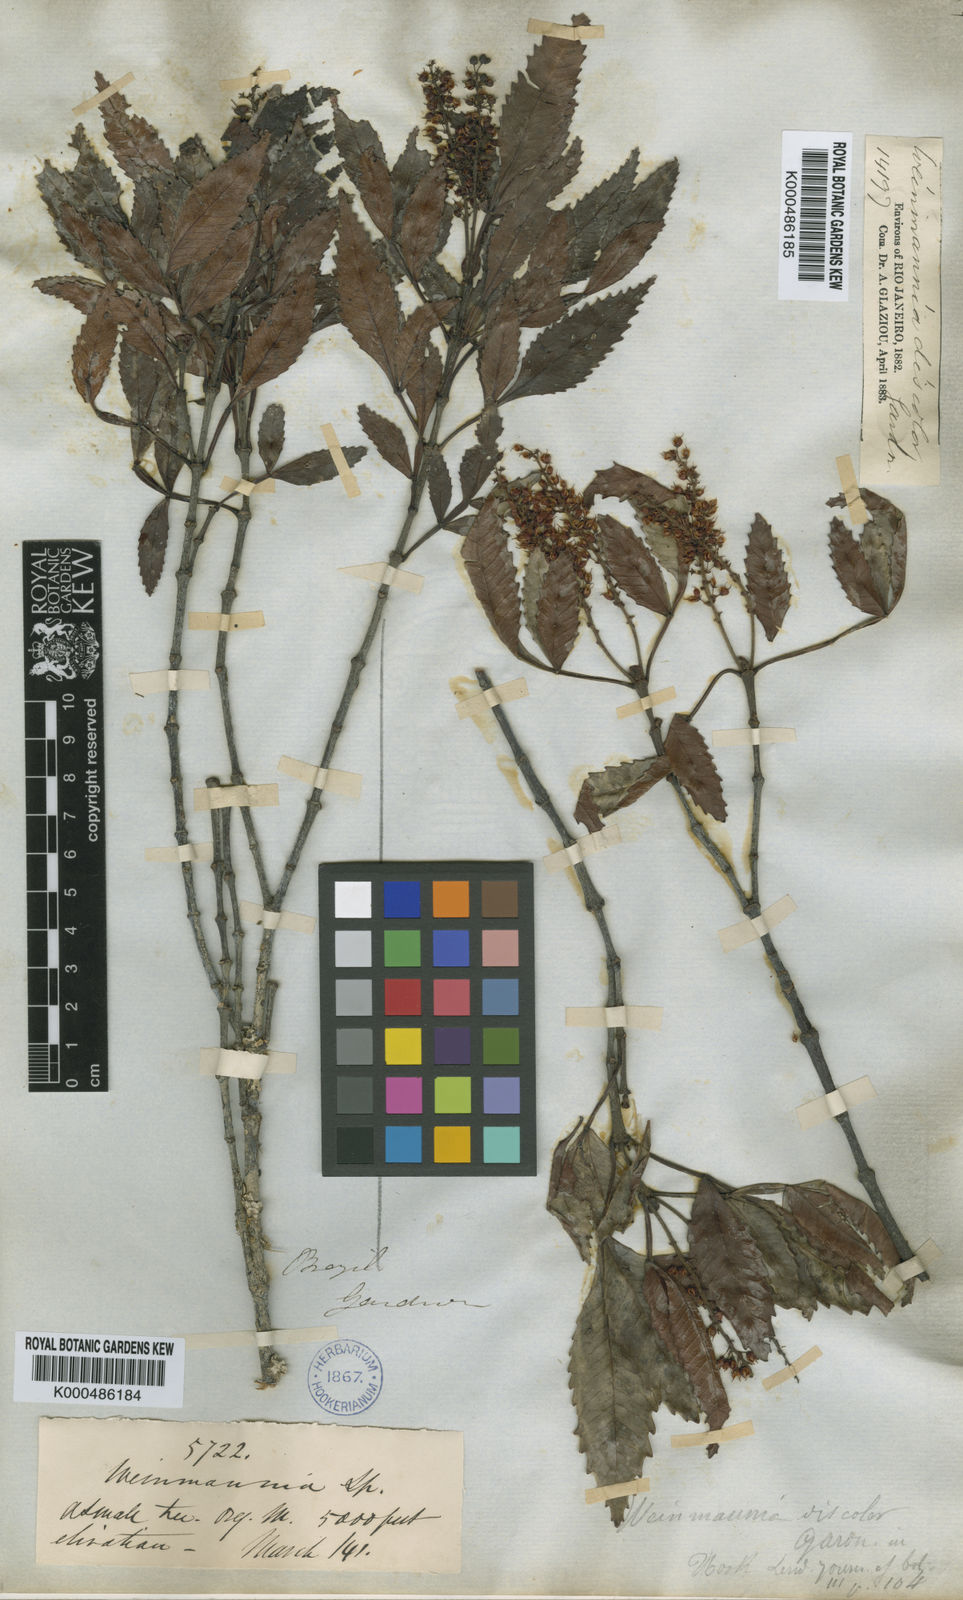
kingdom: Plantae
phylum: Tracheophyta
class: Magnoliopsida
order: Oxalidales
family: Cunoniaceae
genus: Weinmannia
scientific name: Weinmannia discolor
